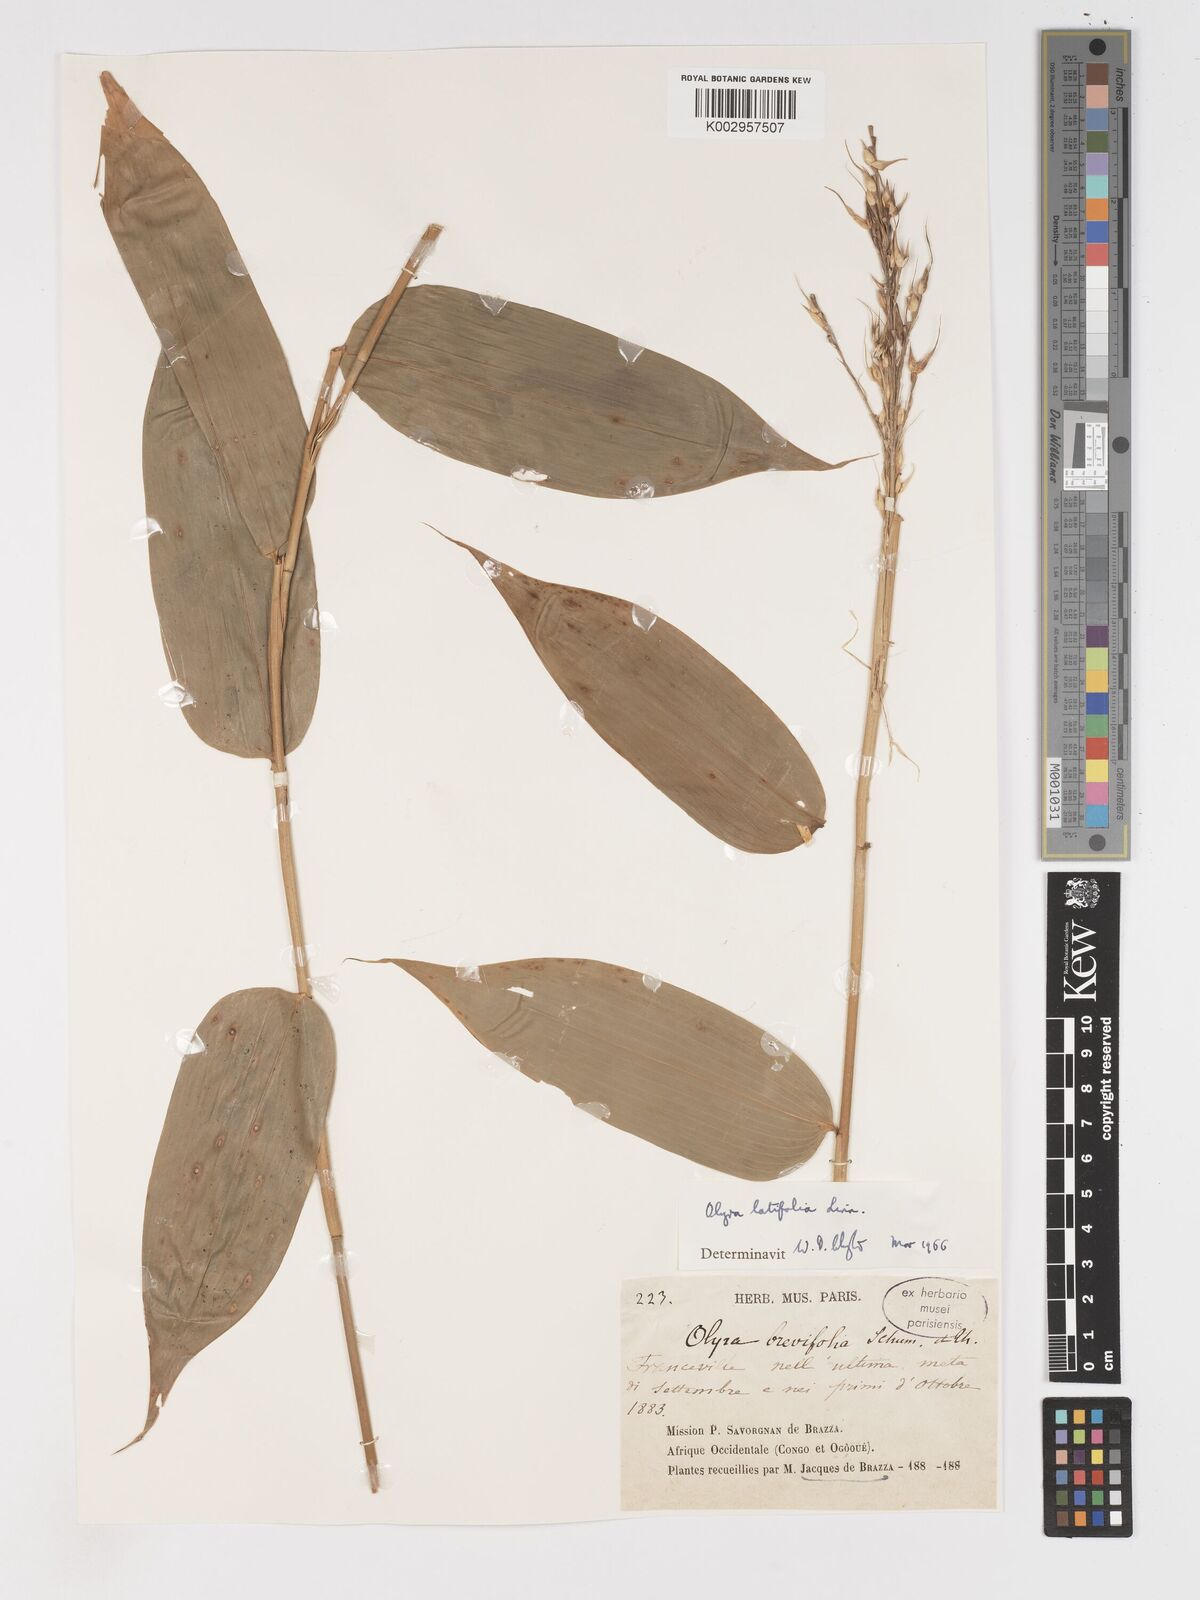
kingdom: Plantae
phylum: Tracheophyta
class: Liliopsida
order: Poales
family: Poaceae
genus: Olyra
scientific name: Olyra latifolia
